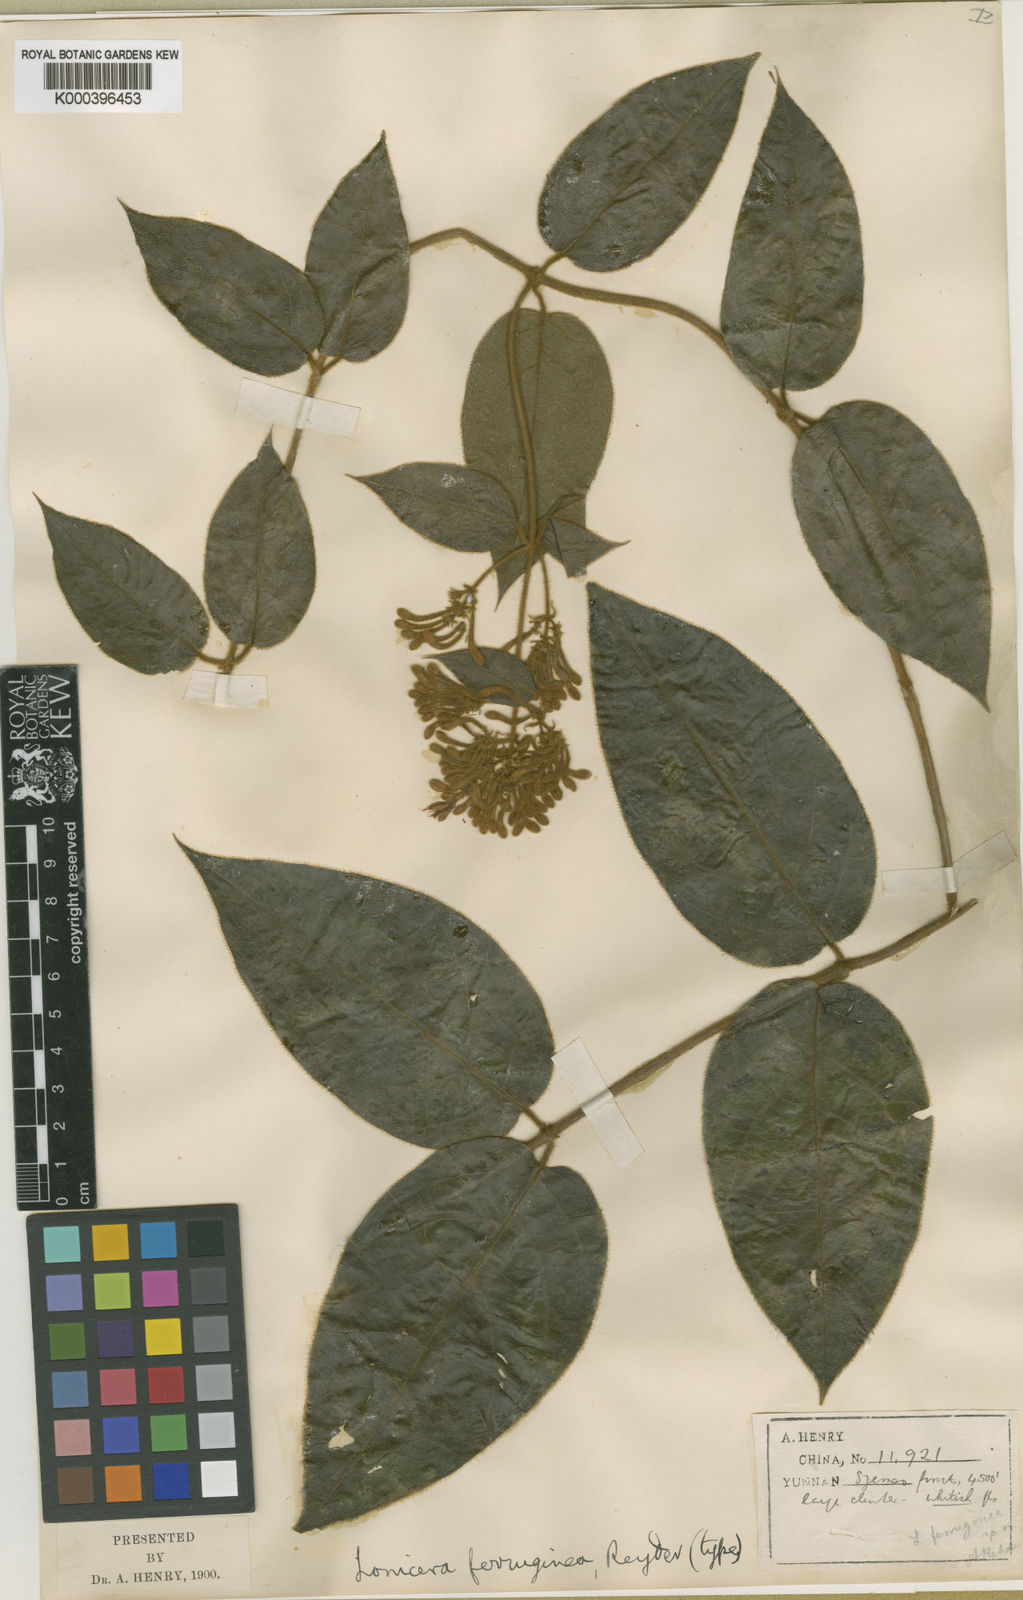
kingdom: Plantae
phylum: Tracheophyta
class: Magnoliopsida
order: Dipsacales
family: Caprifoliaceae
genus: Lonicera
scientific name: Lonicera ferruginea
